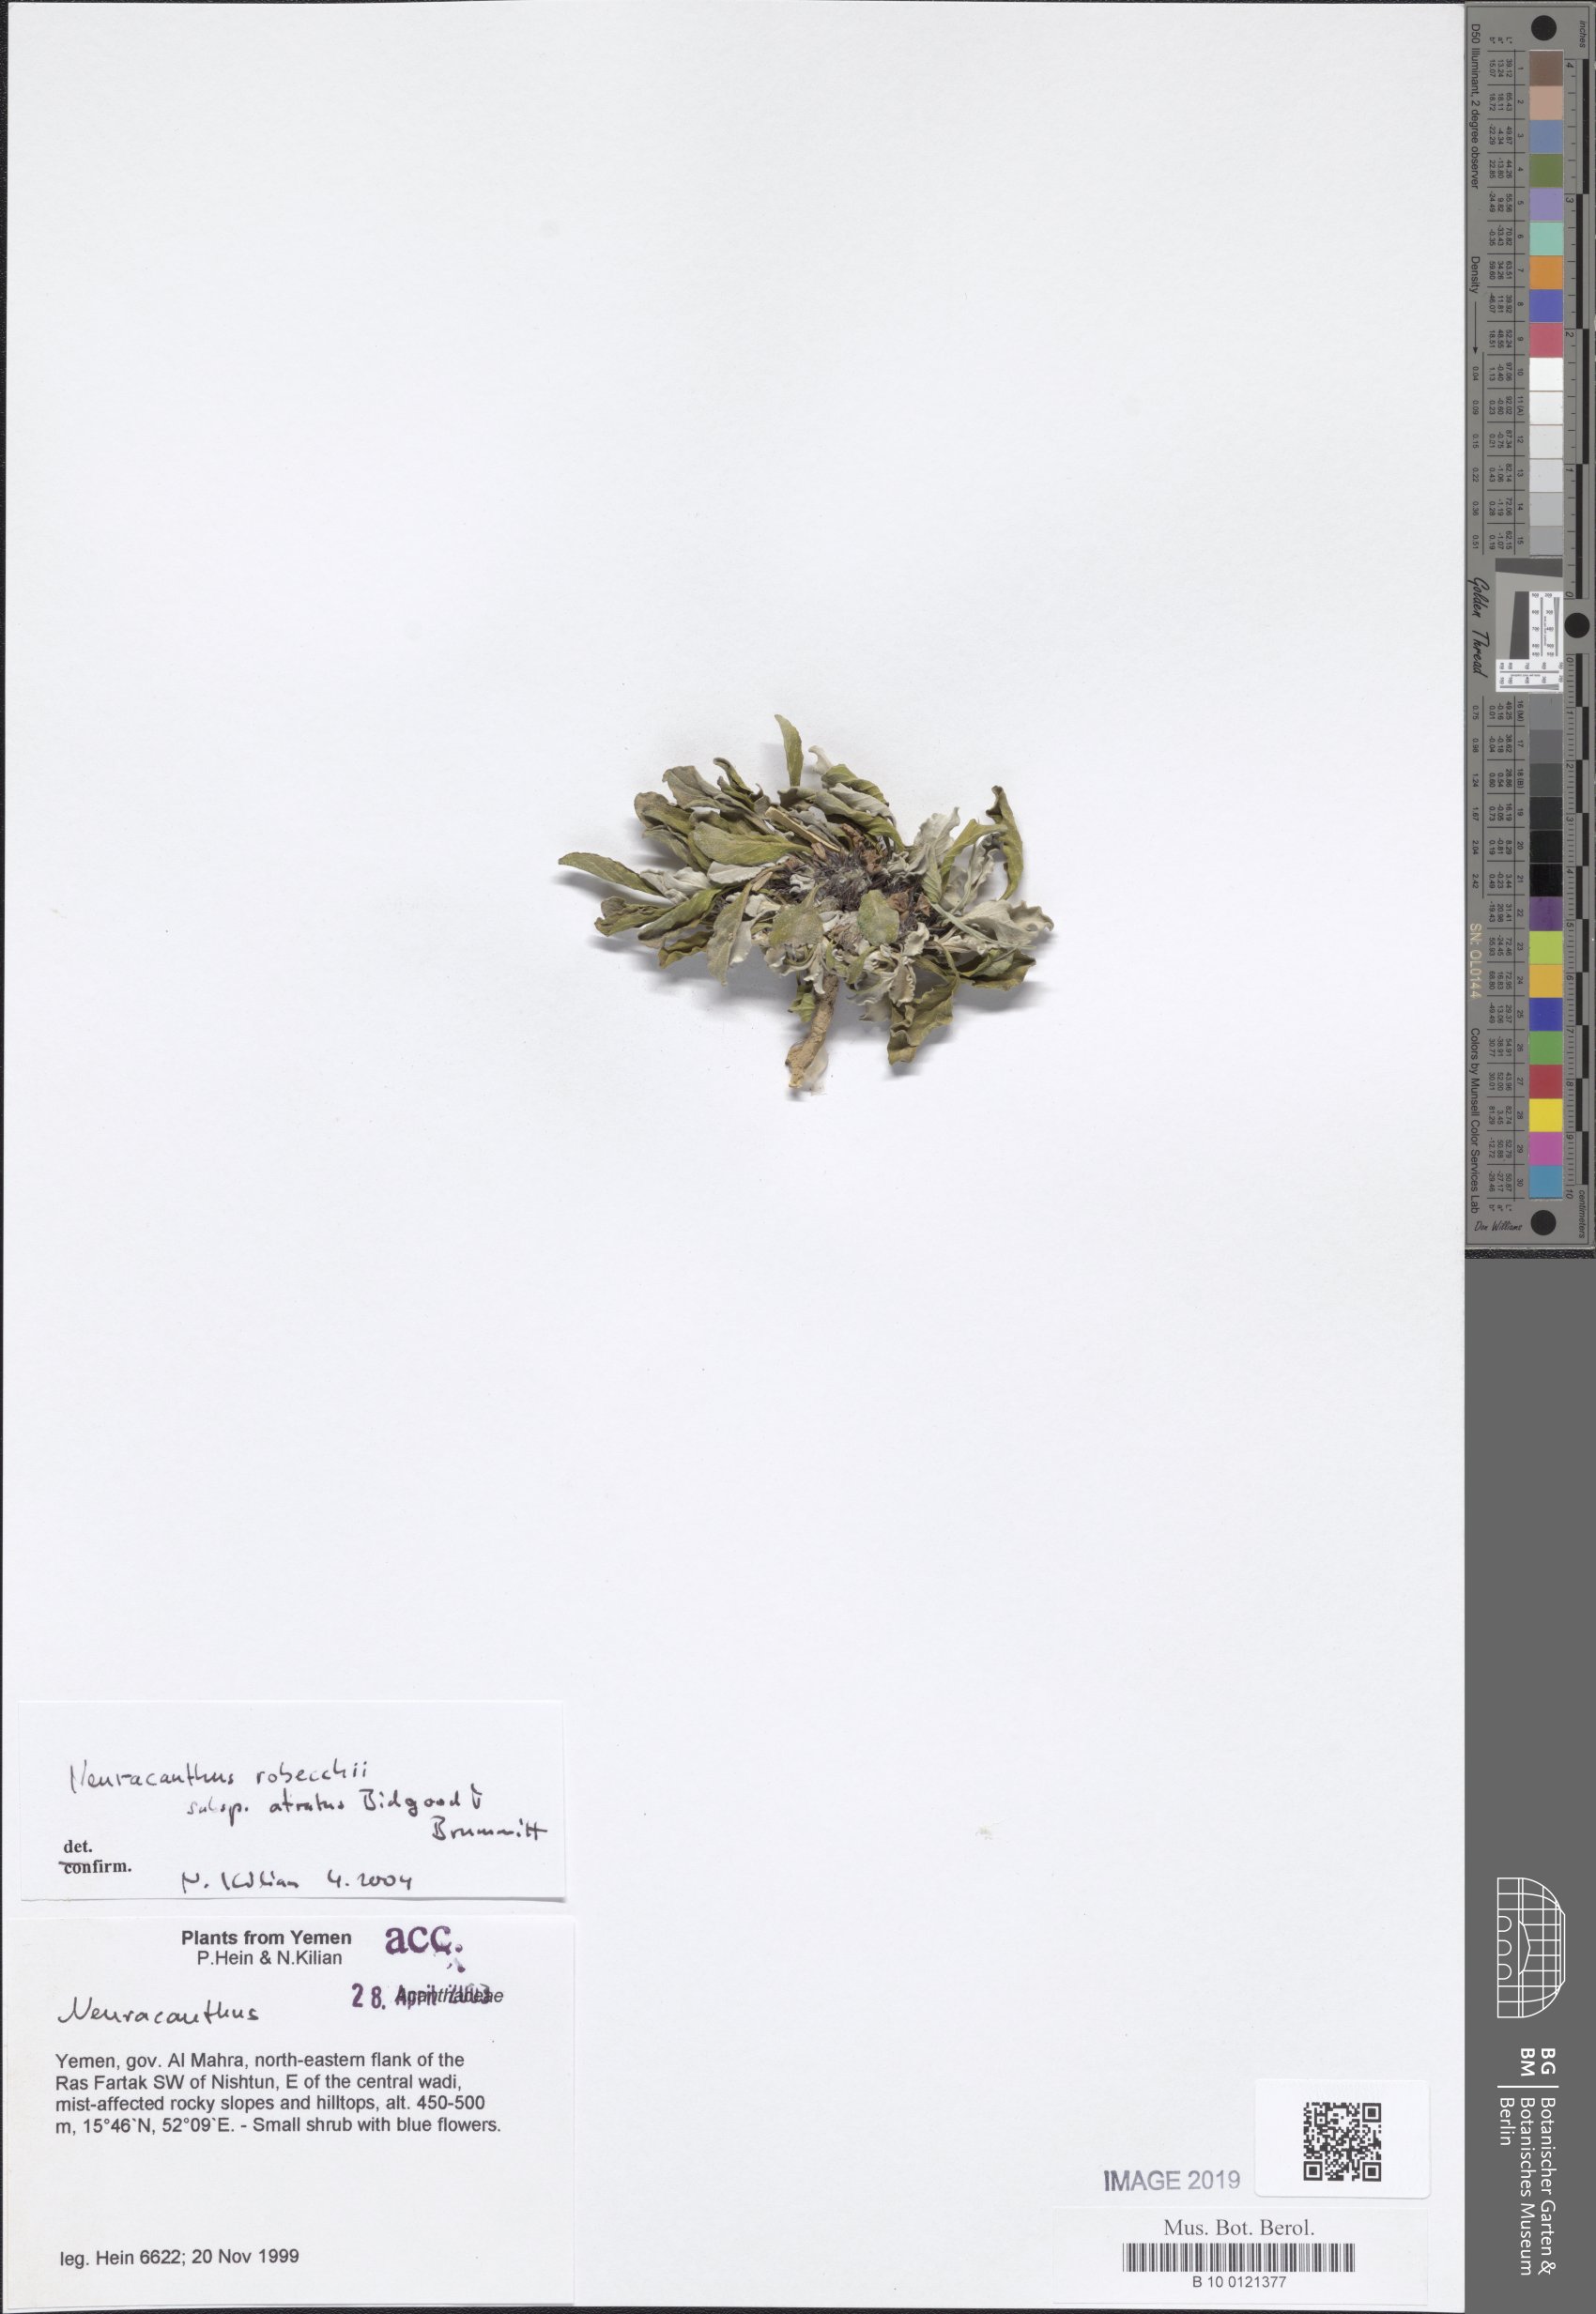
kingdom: Plantae
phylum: Tracheophyta
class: Magnoliopsida
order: Lamiales
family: Acanthaceae
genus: Neuracanthus
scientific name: Neuracanthus
